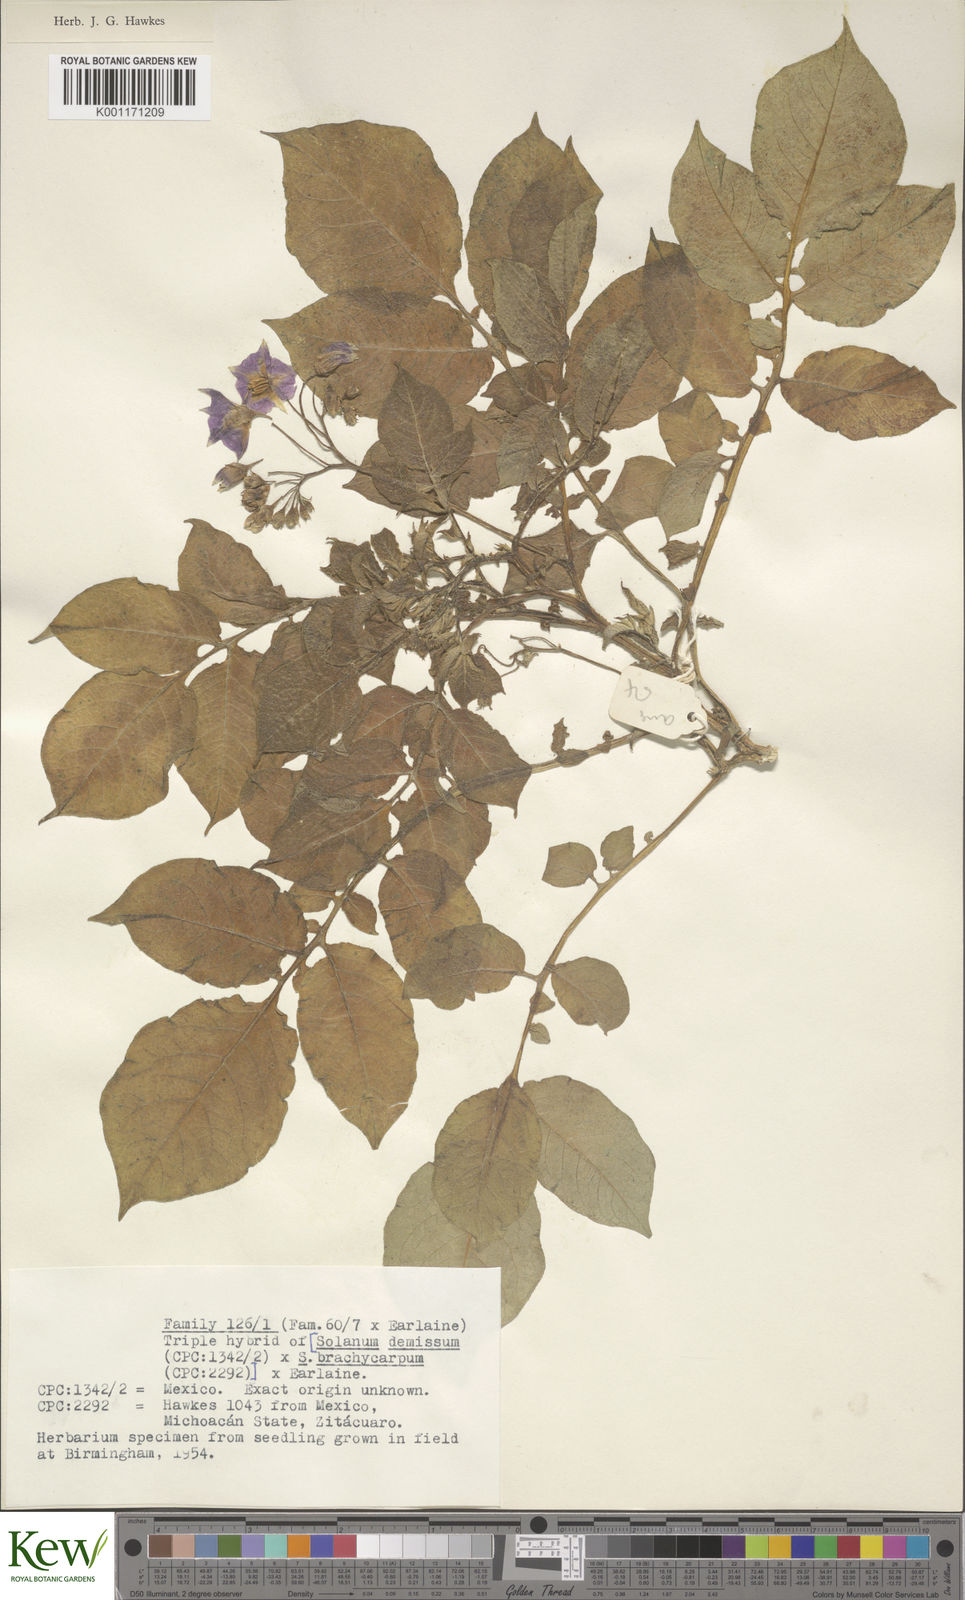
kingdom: Plantae
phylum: Tracheophyta
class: Magnoliopsida
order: Solanales
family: Solanaceae
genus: Solanum
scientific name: Solanum demissum
